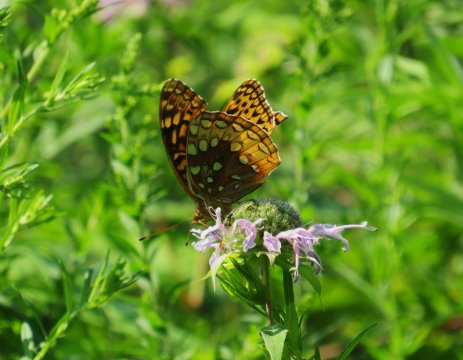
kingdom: Animalia
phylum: Arthropoda
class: Insecta
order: Lepidoptera
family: Nymphalidae
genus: Speyeria
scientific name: Speyeria cybele
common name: Great Spangled Fritillary
